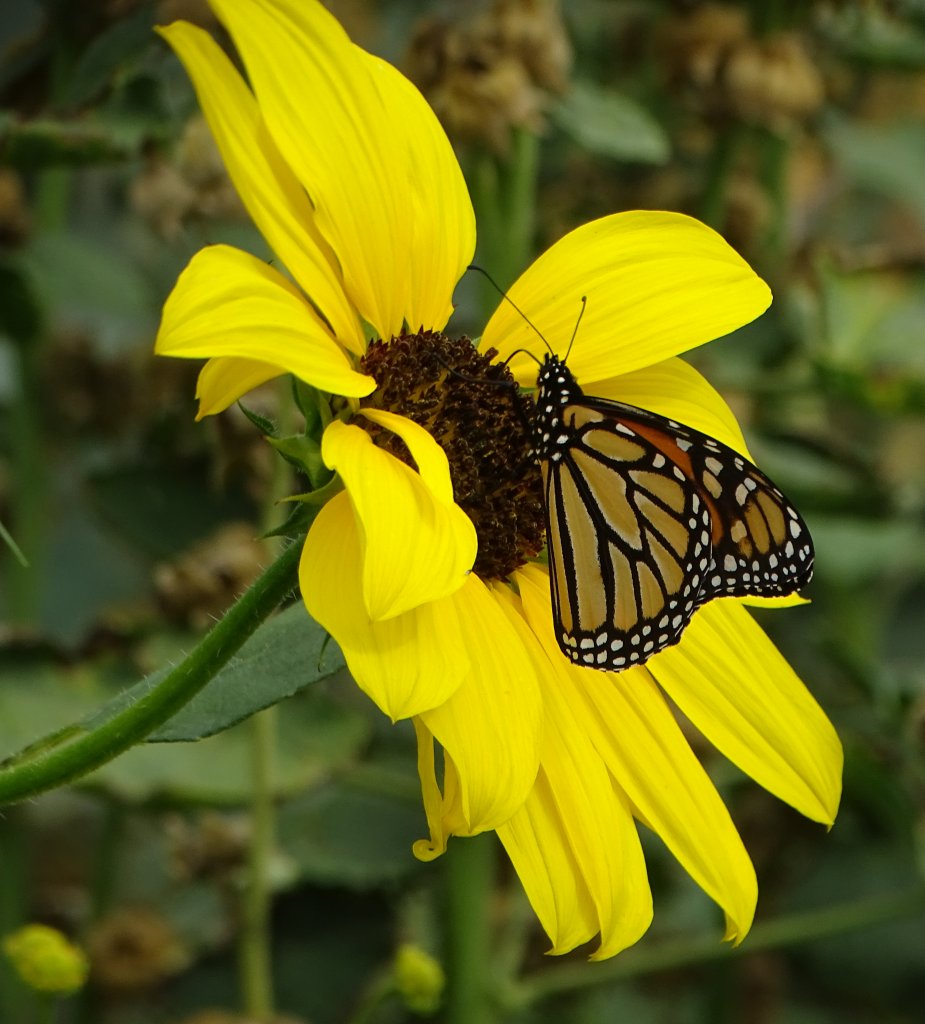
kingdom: Animalia
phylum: Arthropoda
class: Insecta
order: Lepidoptera
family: Nymphalidae
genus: Danaus
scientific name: Danaus plexippus
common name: Monarch
